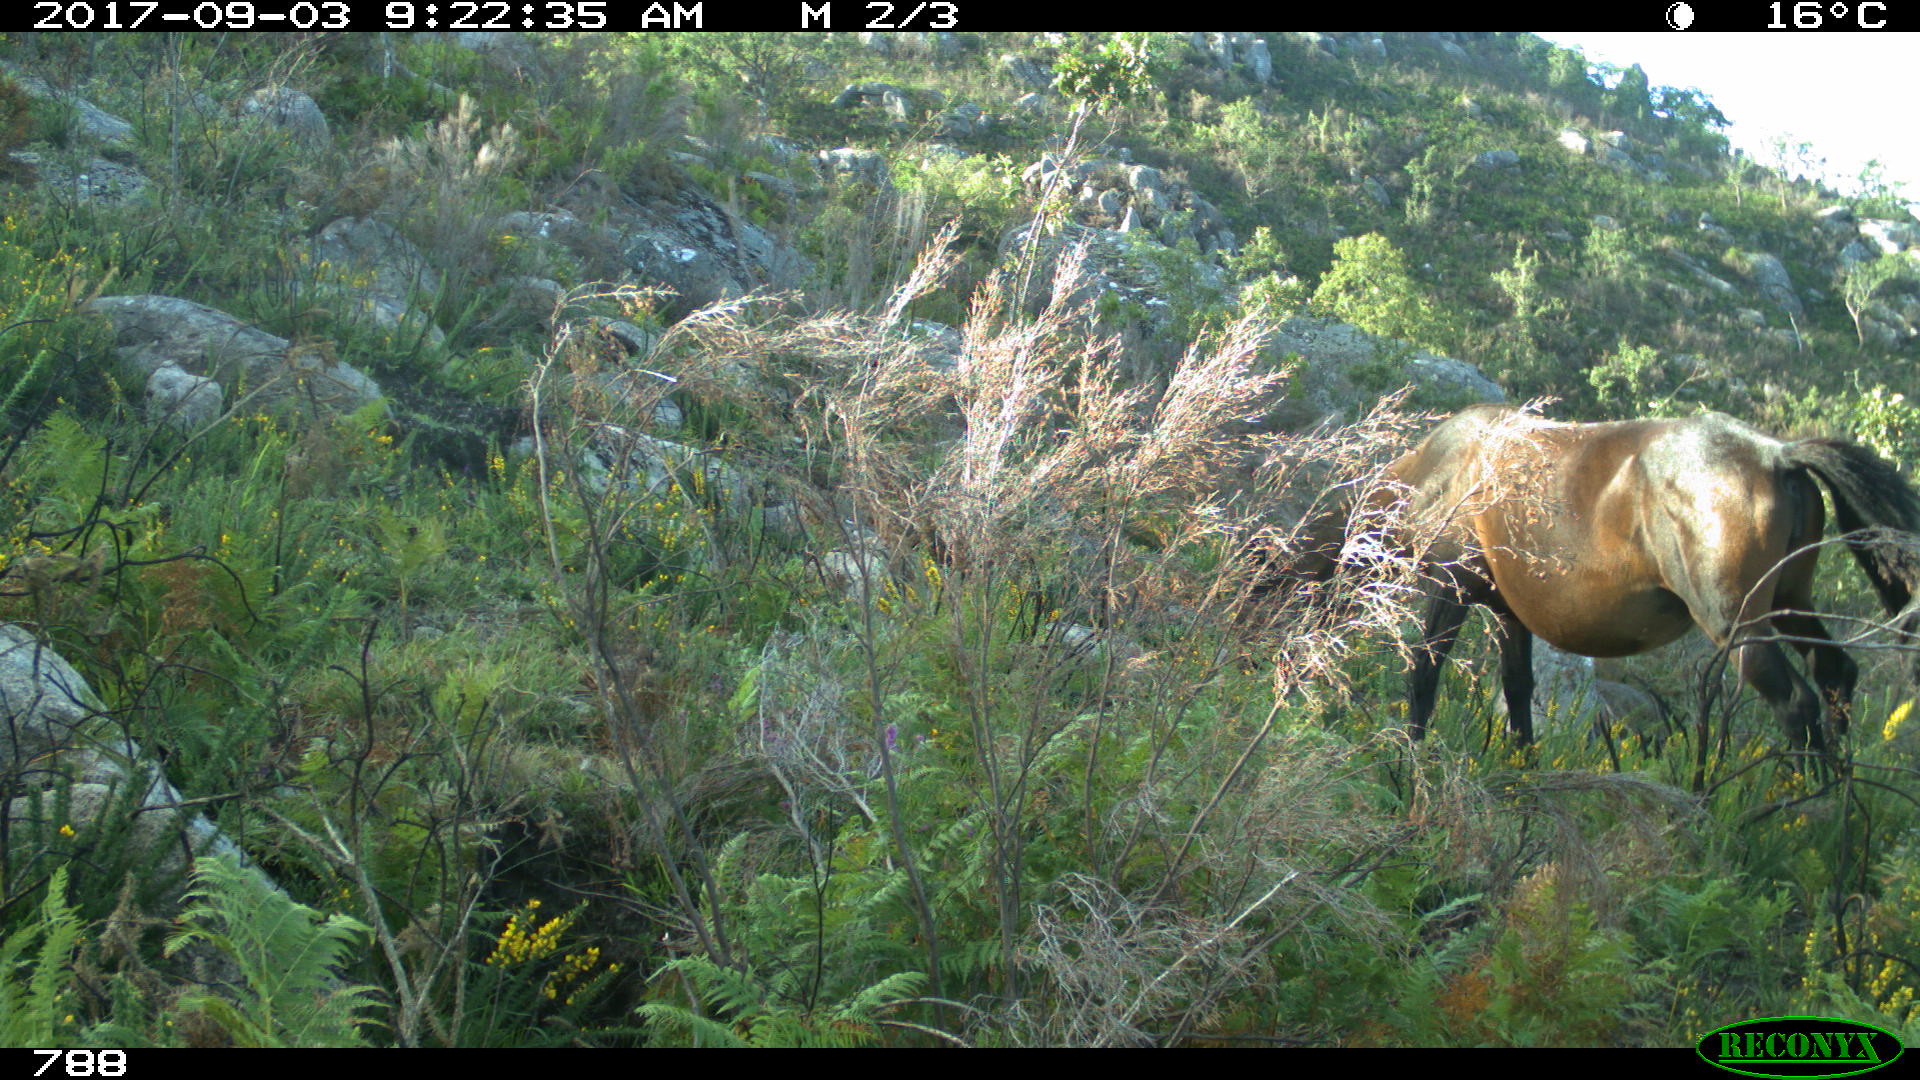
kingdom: Animalia
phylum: Chordata
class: Mammalia
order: Perissodactyla
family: Equidae
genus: Equus
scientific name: Equus caballus
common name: Horse
